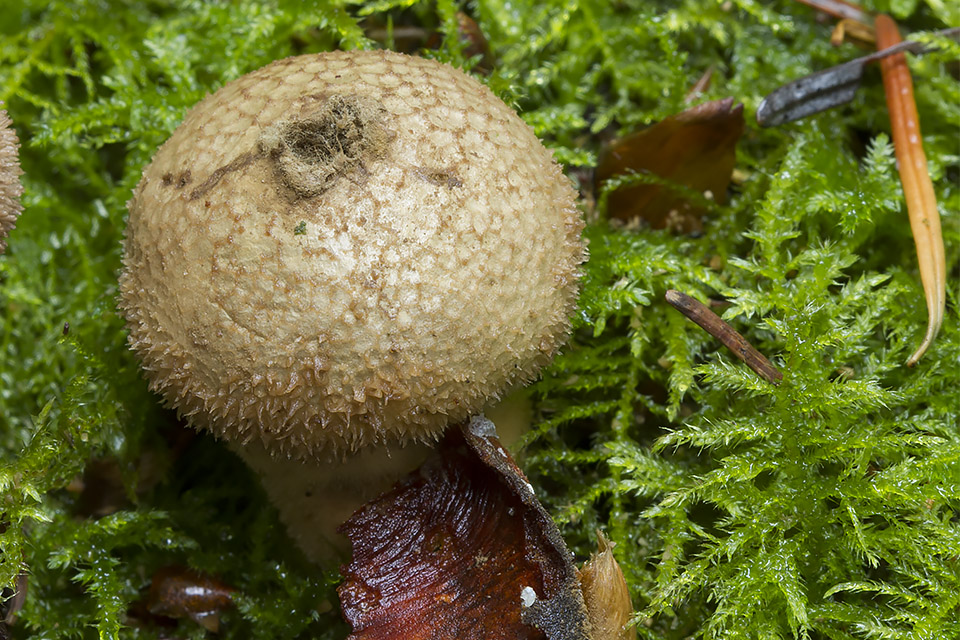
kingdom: Fungi
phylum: Basidiomycota
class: Agaricomycetes
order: Agaricales
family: Lycoperdaceae
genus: Lycoperdon
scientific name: Lycoperdon nigrescens
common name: sortagtig støvbold
